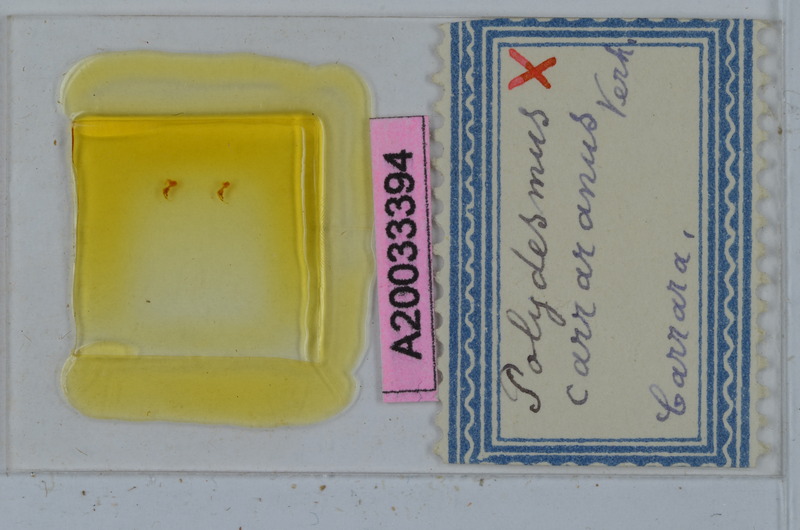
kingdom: Animalia
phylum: Arthropoda
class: Diplopoda
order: Polydesmida
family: Polydesmidae
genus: Polydesmus
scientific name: Polydesmus subulifer
